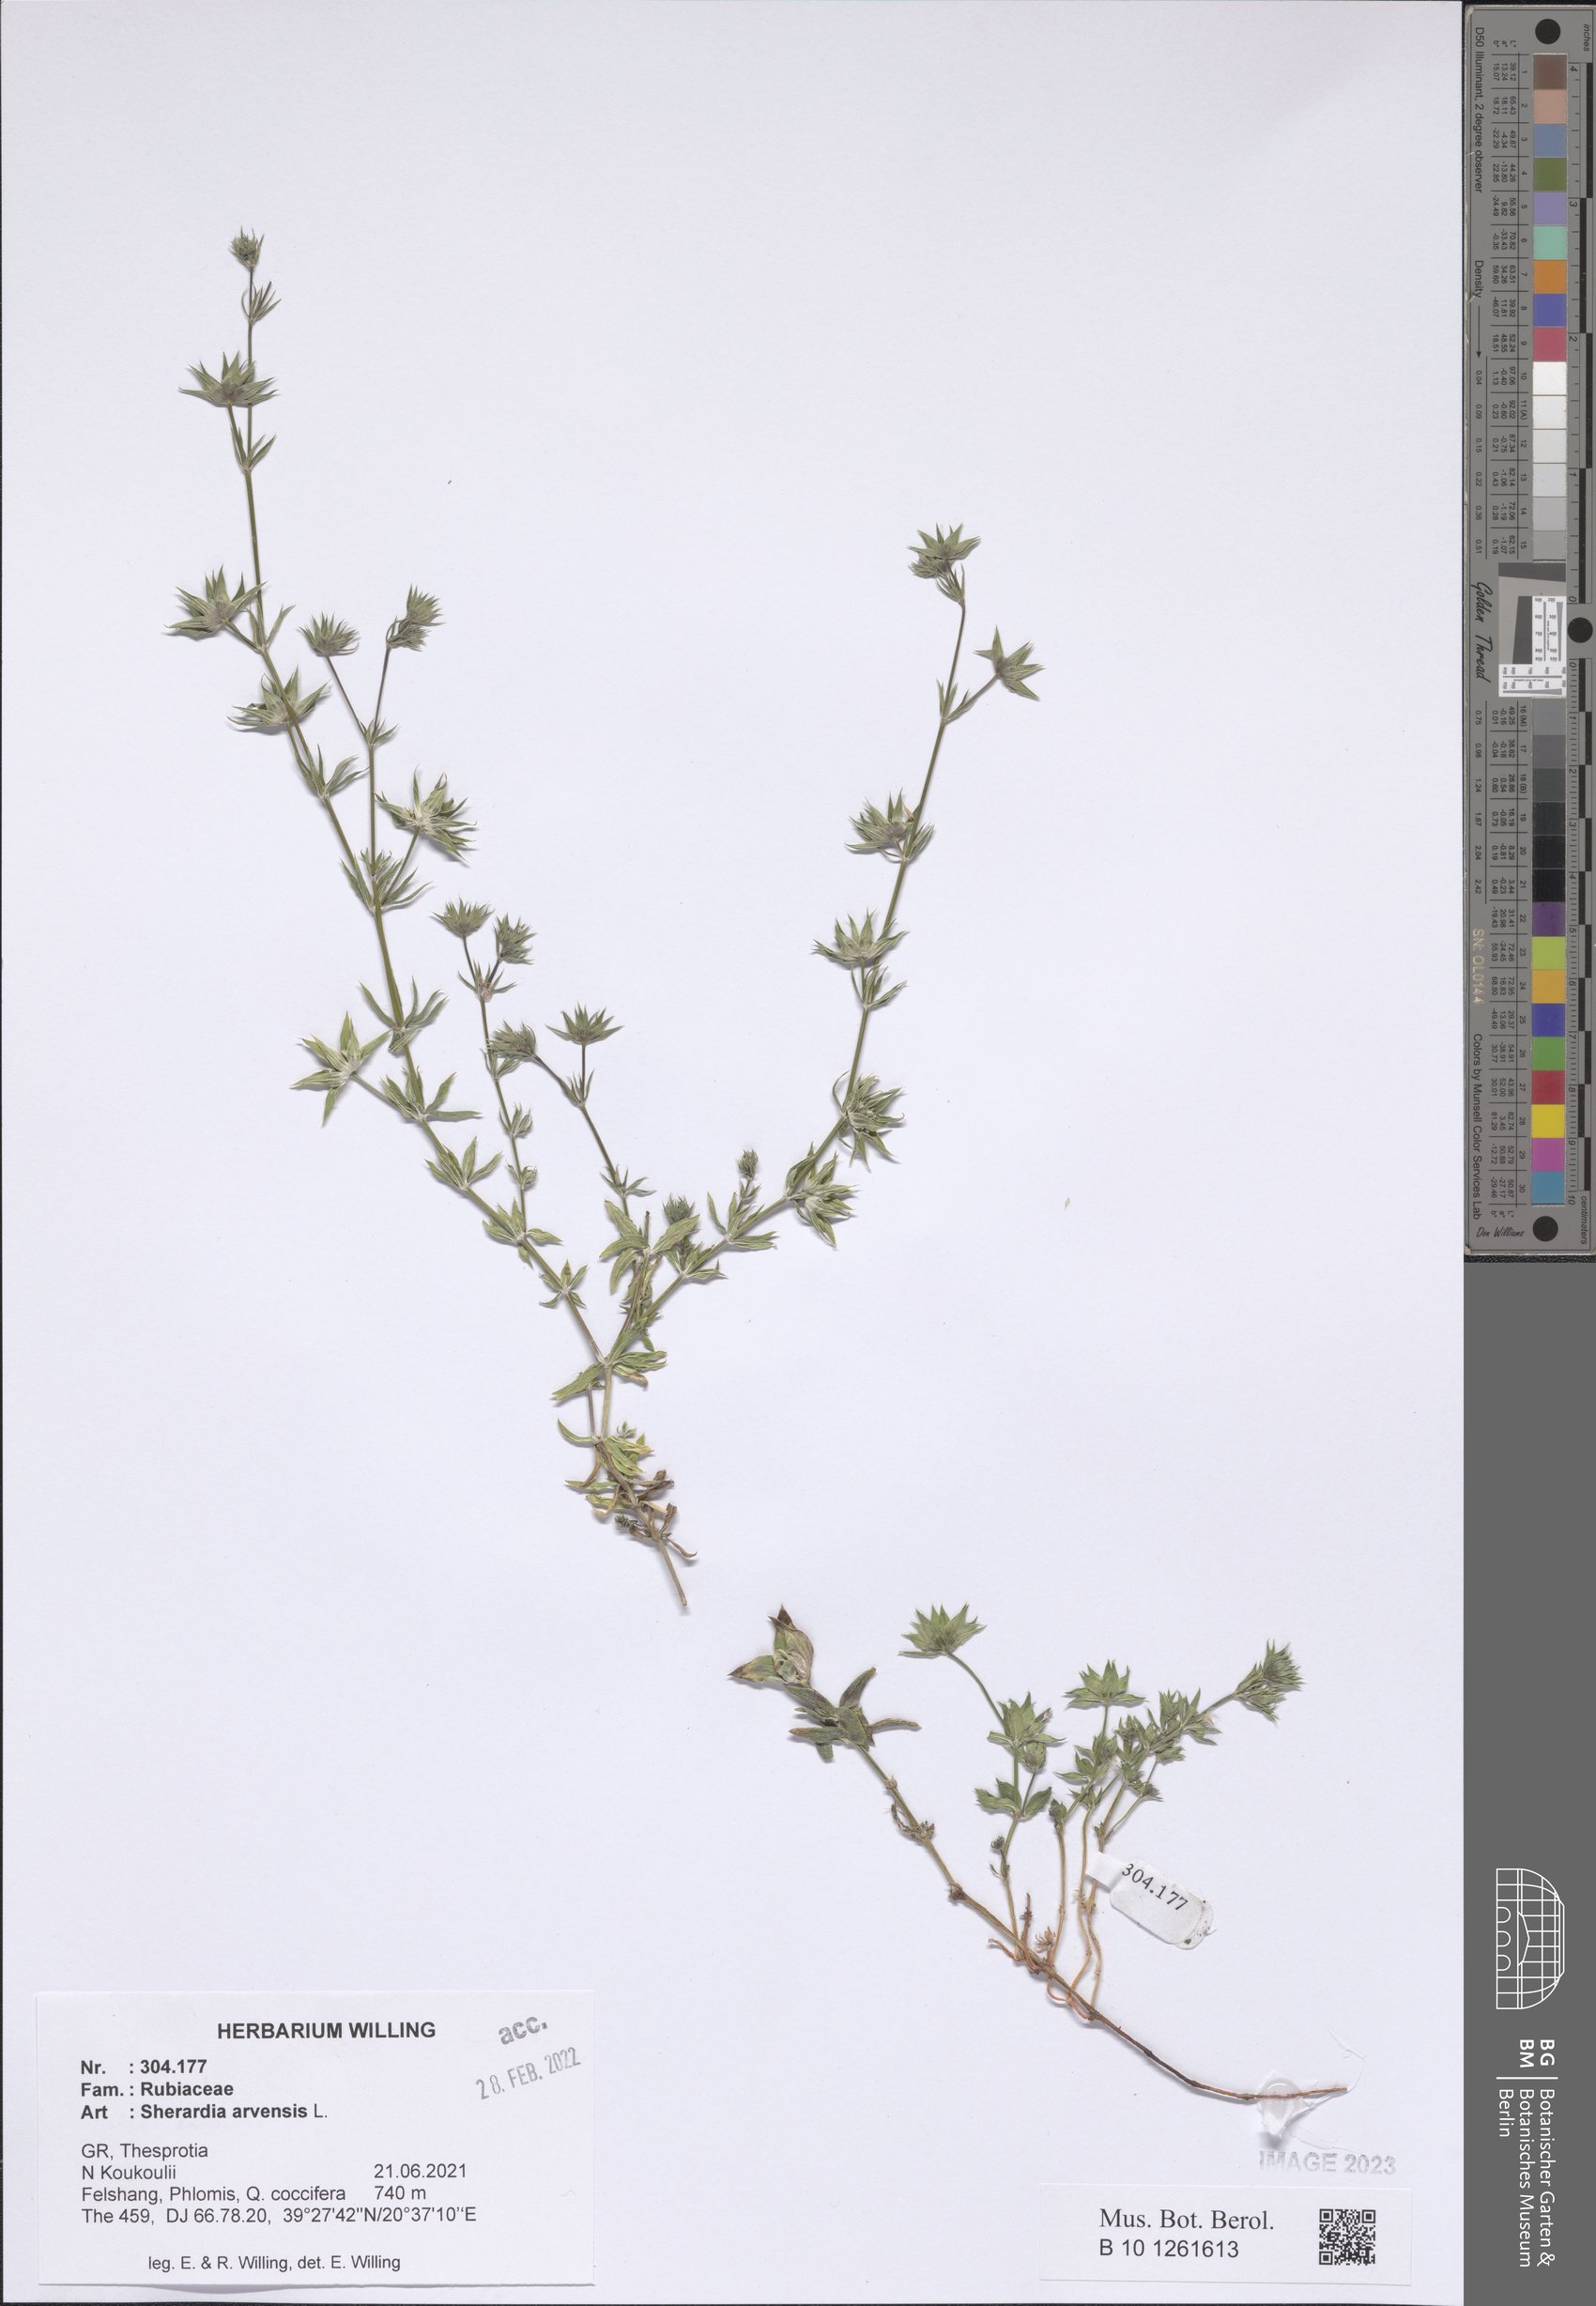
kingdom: Plantae
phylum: Tracheophyta
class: Magnoliopsida
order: Gentianales
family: Rubiaceae
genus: Sherardia
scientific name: Sherardia arvensis
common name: Field madder
